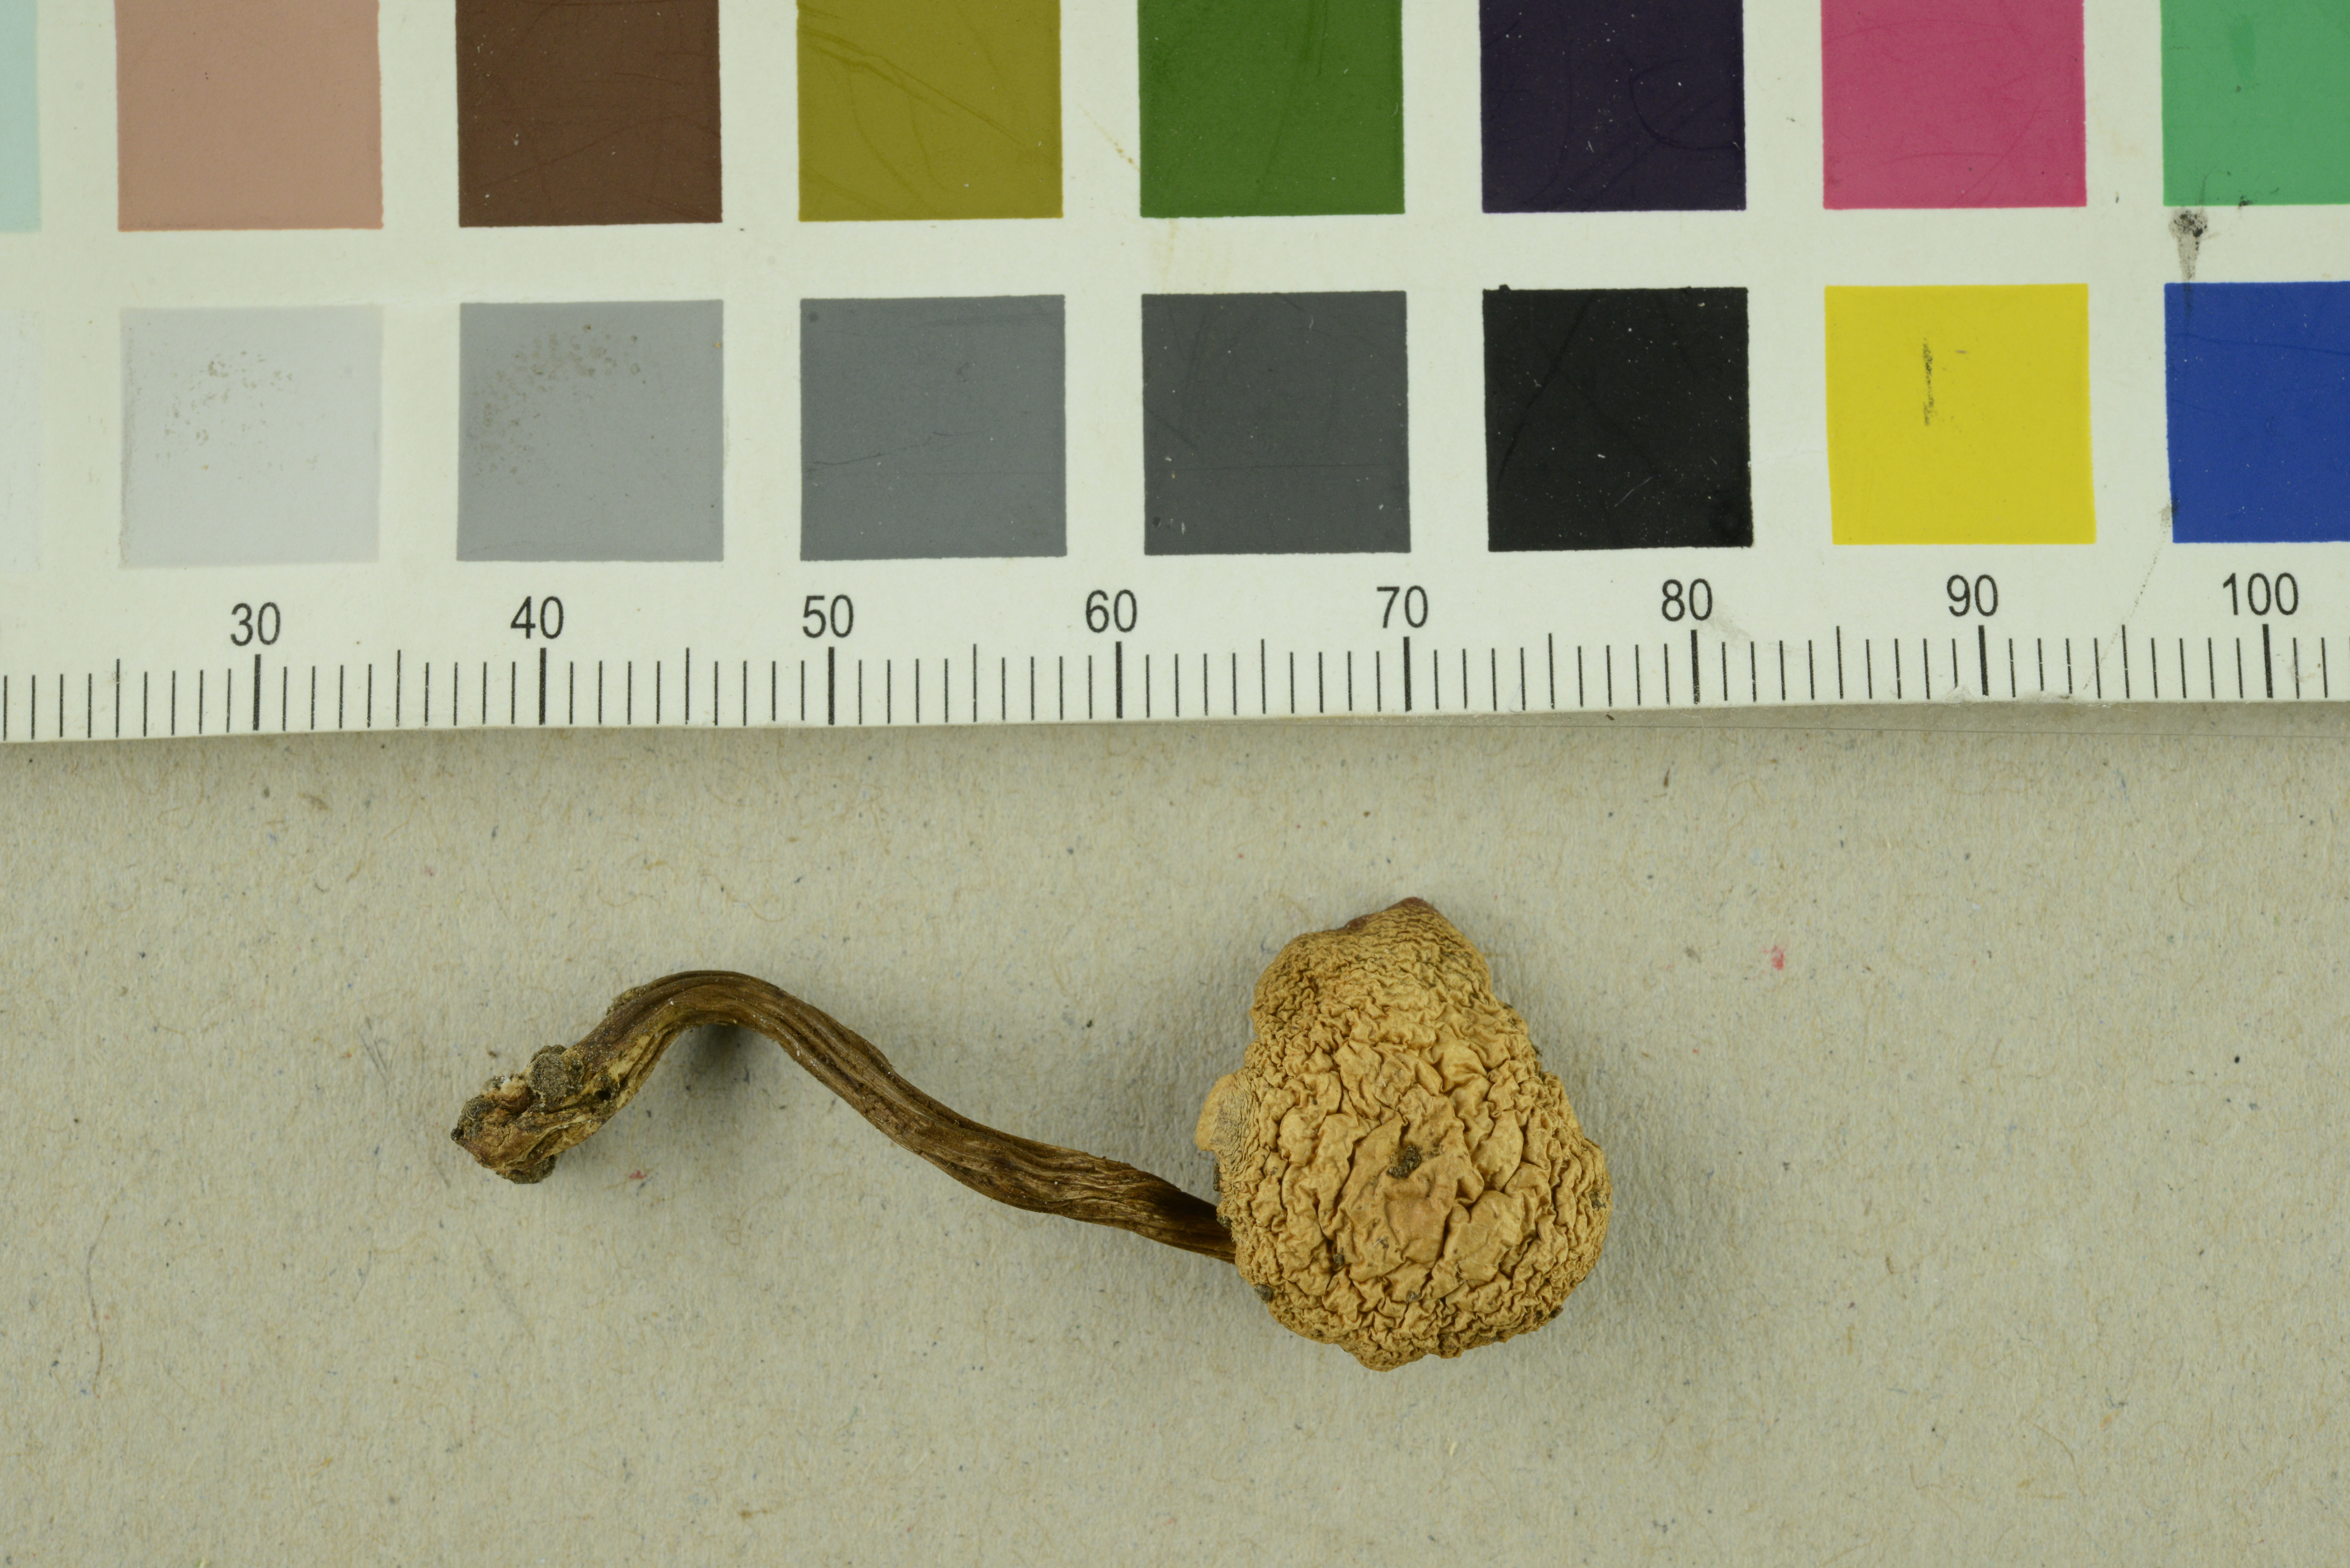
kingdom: Fungi
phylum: Basidiomycota
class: Agaricomycetes
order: Agaricales
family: Strophariaceae
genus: Pholiota
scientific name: Pholiota lignicola
